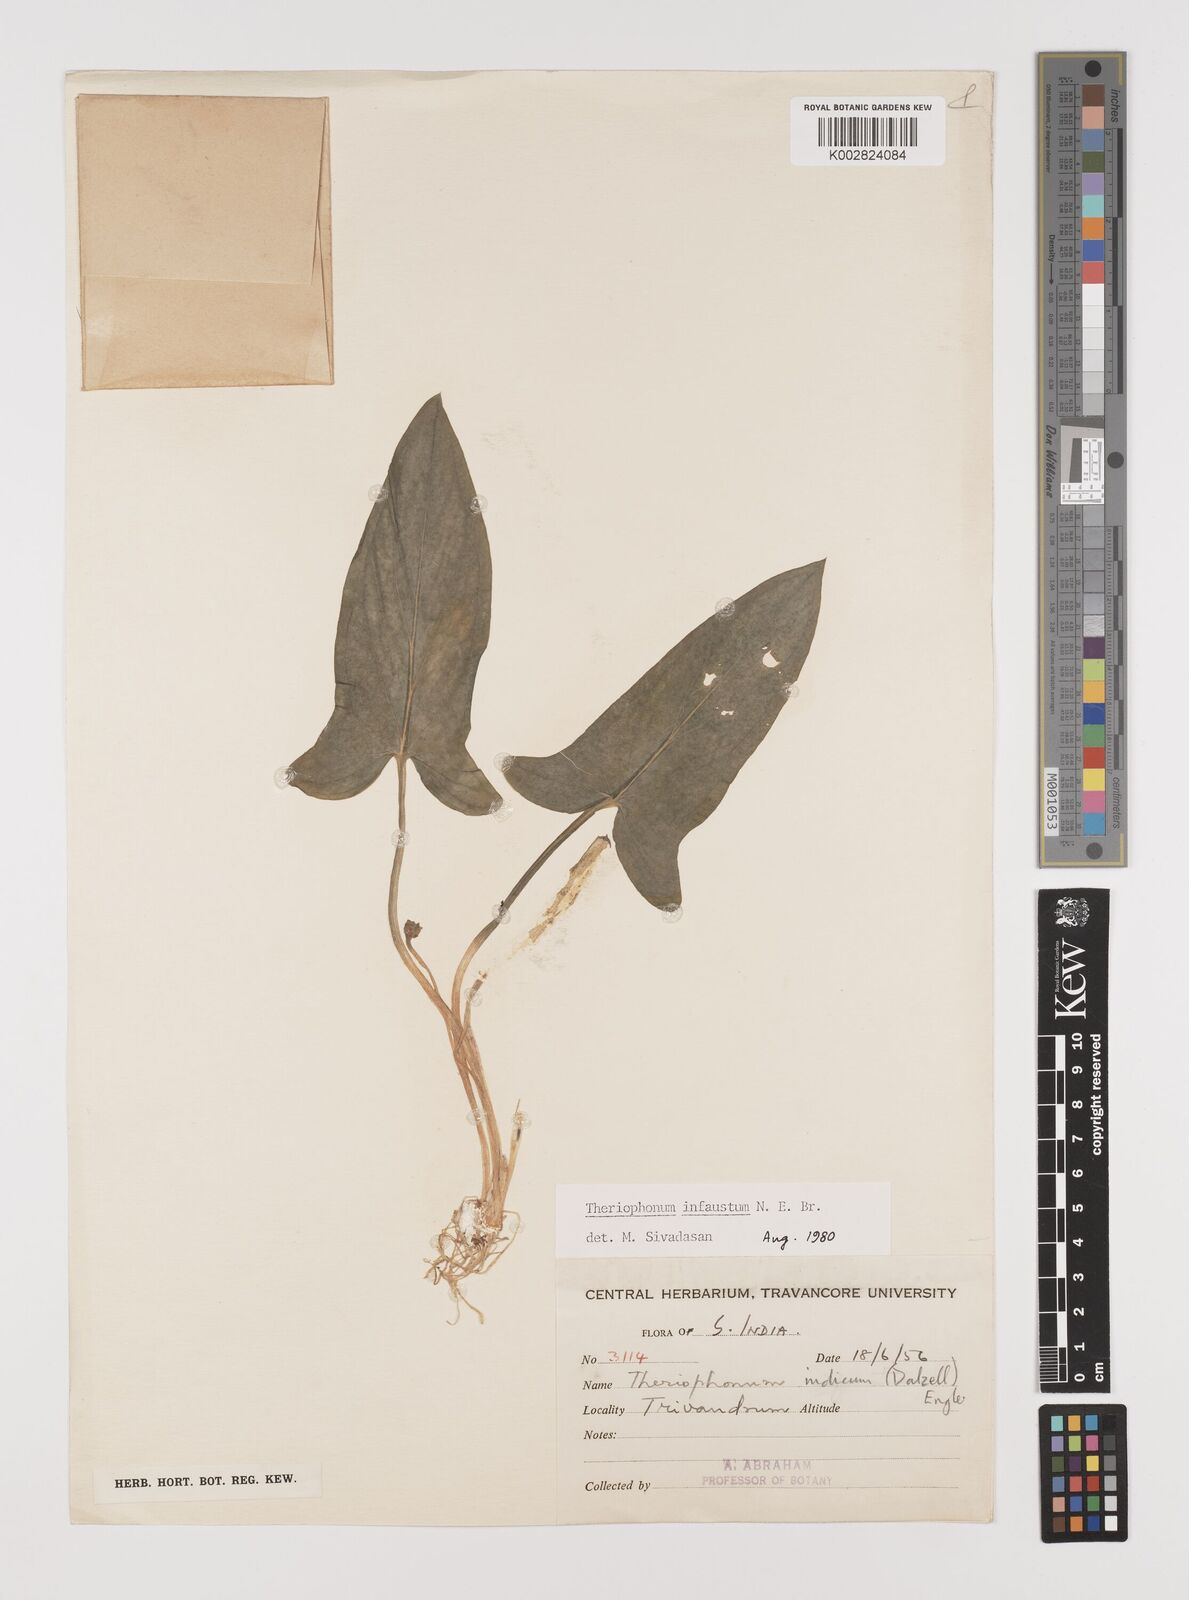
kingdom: Plantae
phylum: Tracheophyta
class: Liliopsida
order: Alismatales
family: Araceae
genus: Theriophonum
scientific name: Theriophonum infaustum
